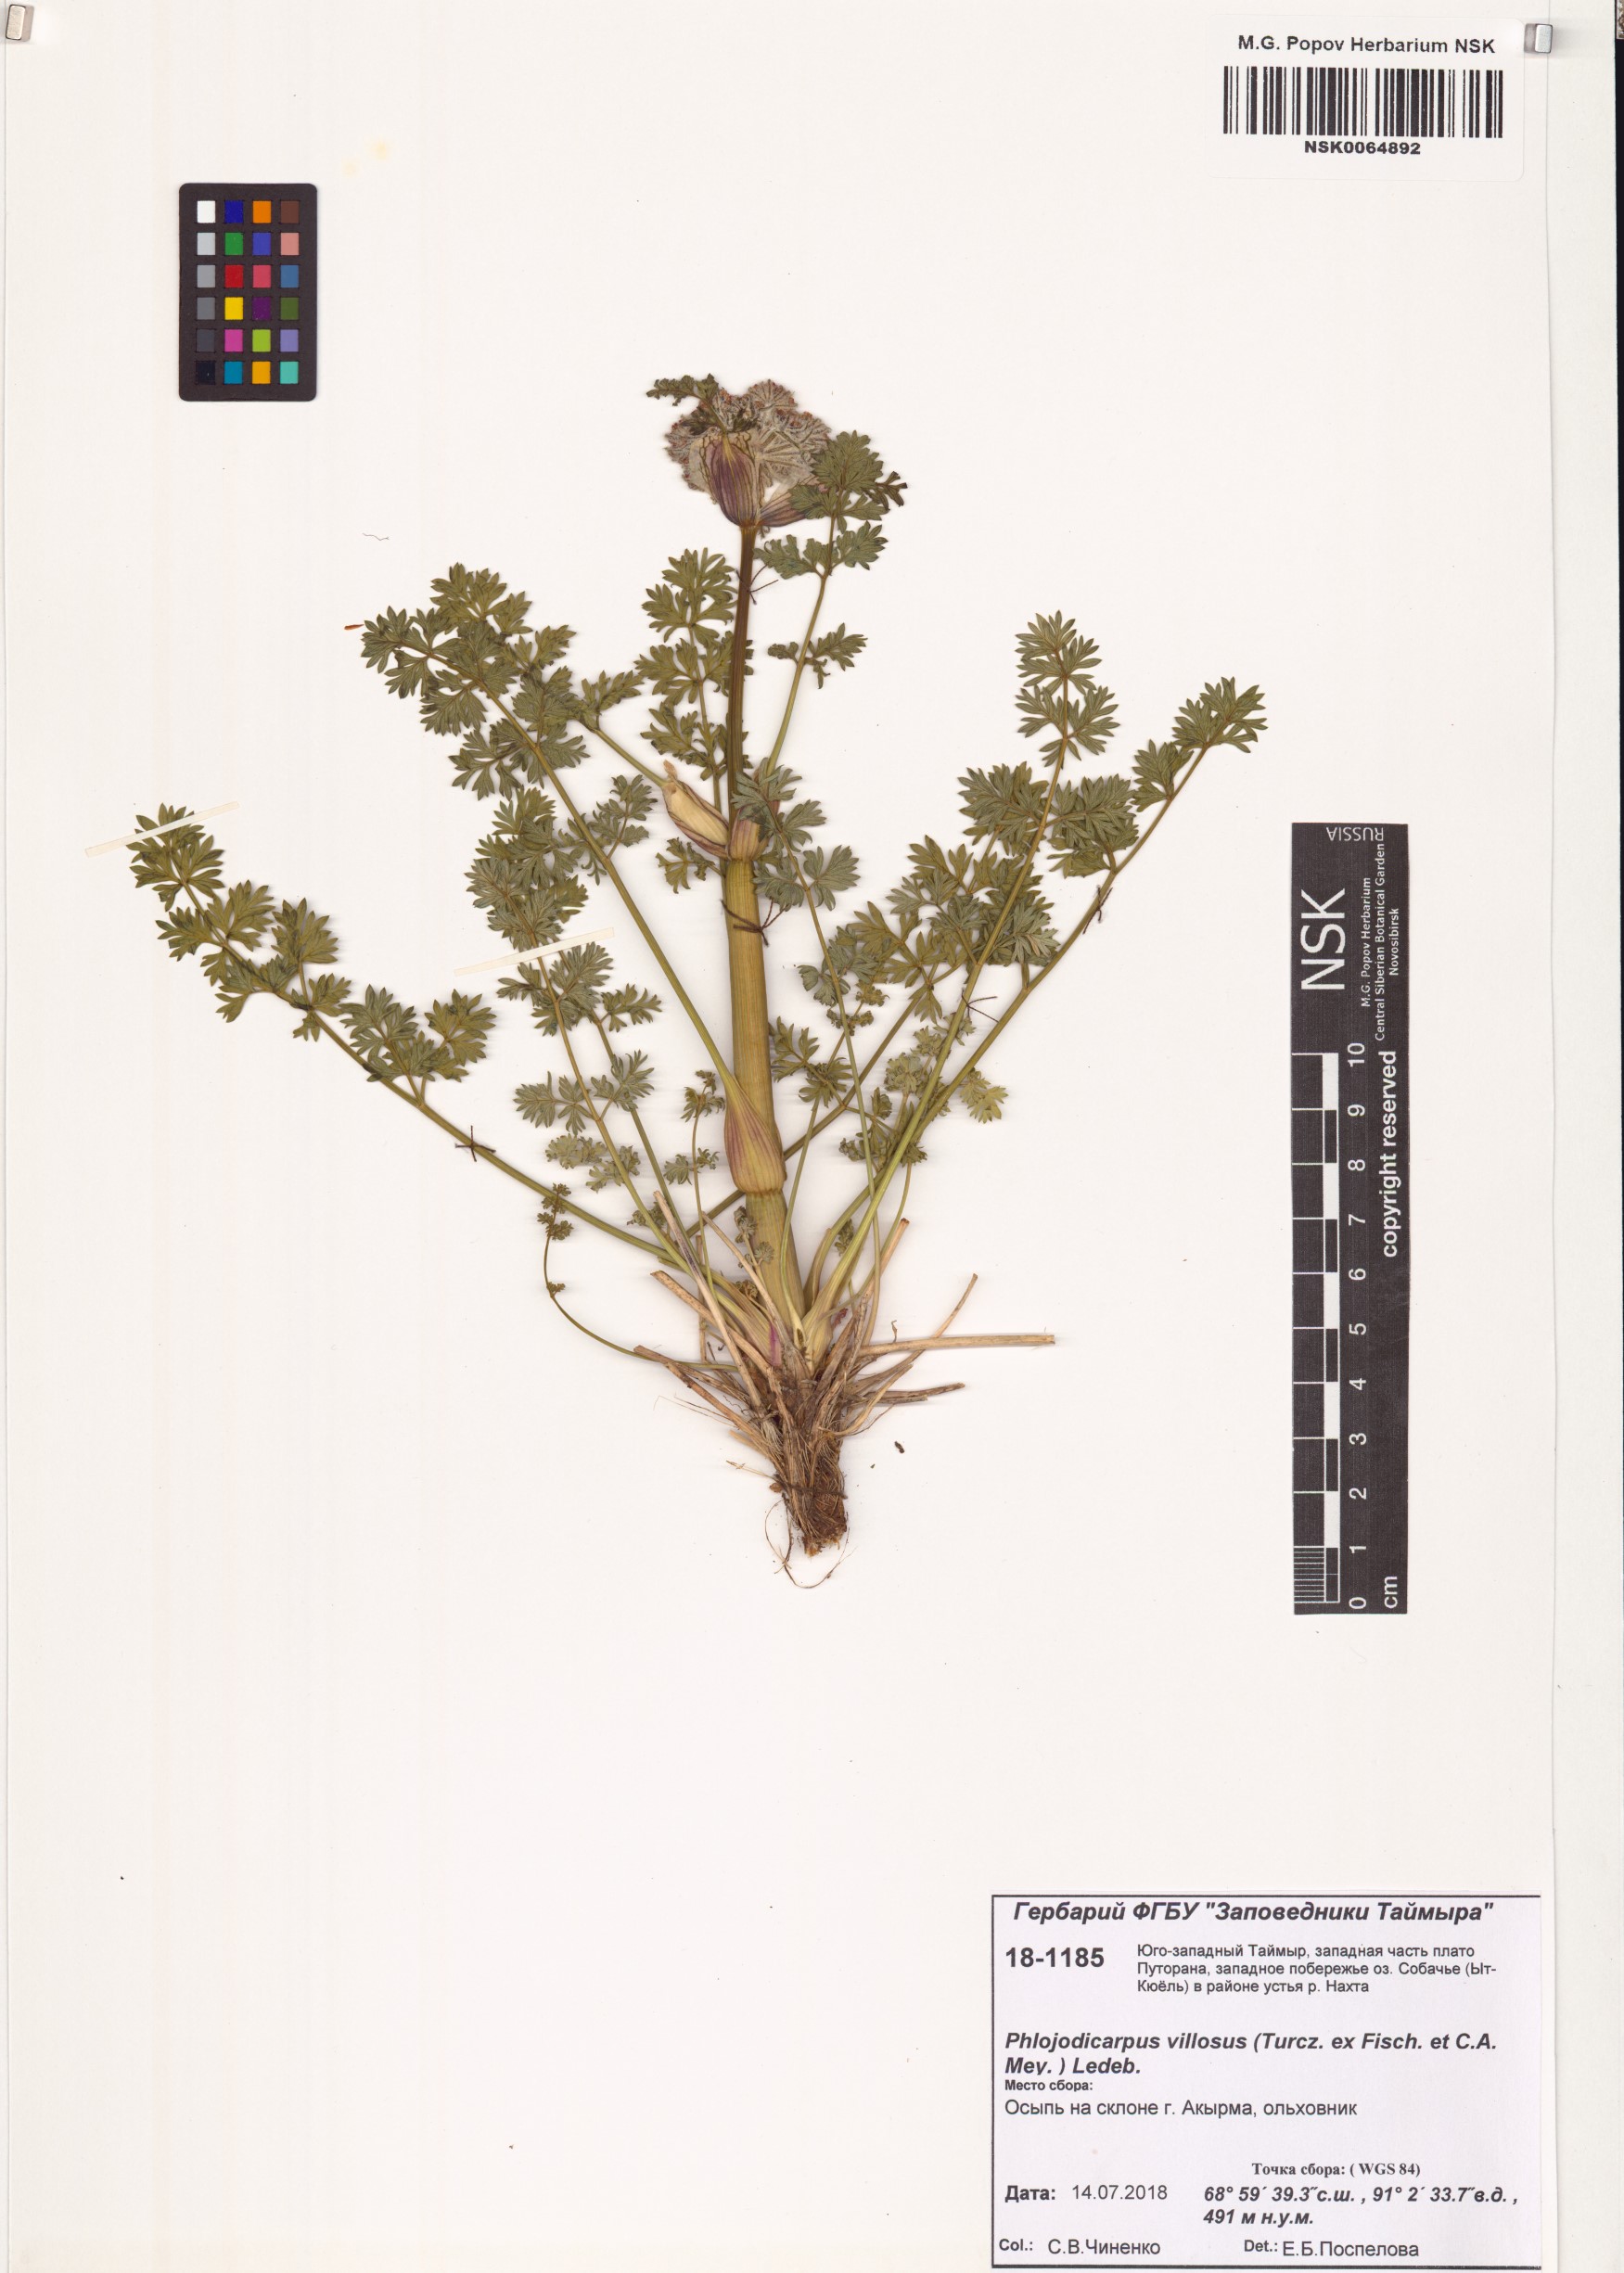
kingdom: Plantae
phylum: Tracheophyta
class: Magnoliopsida
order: Apiales
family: Apiaceae
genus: Phlojodicarpus
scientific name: Phlojodicarpus villosus
